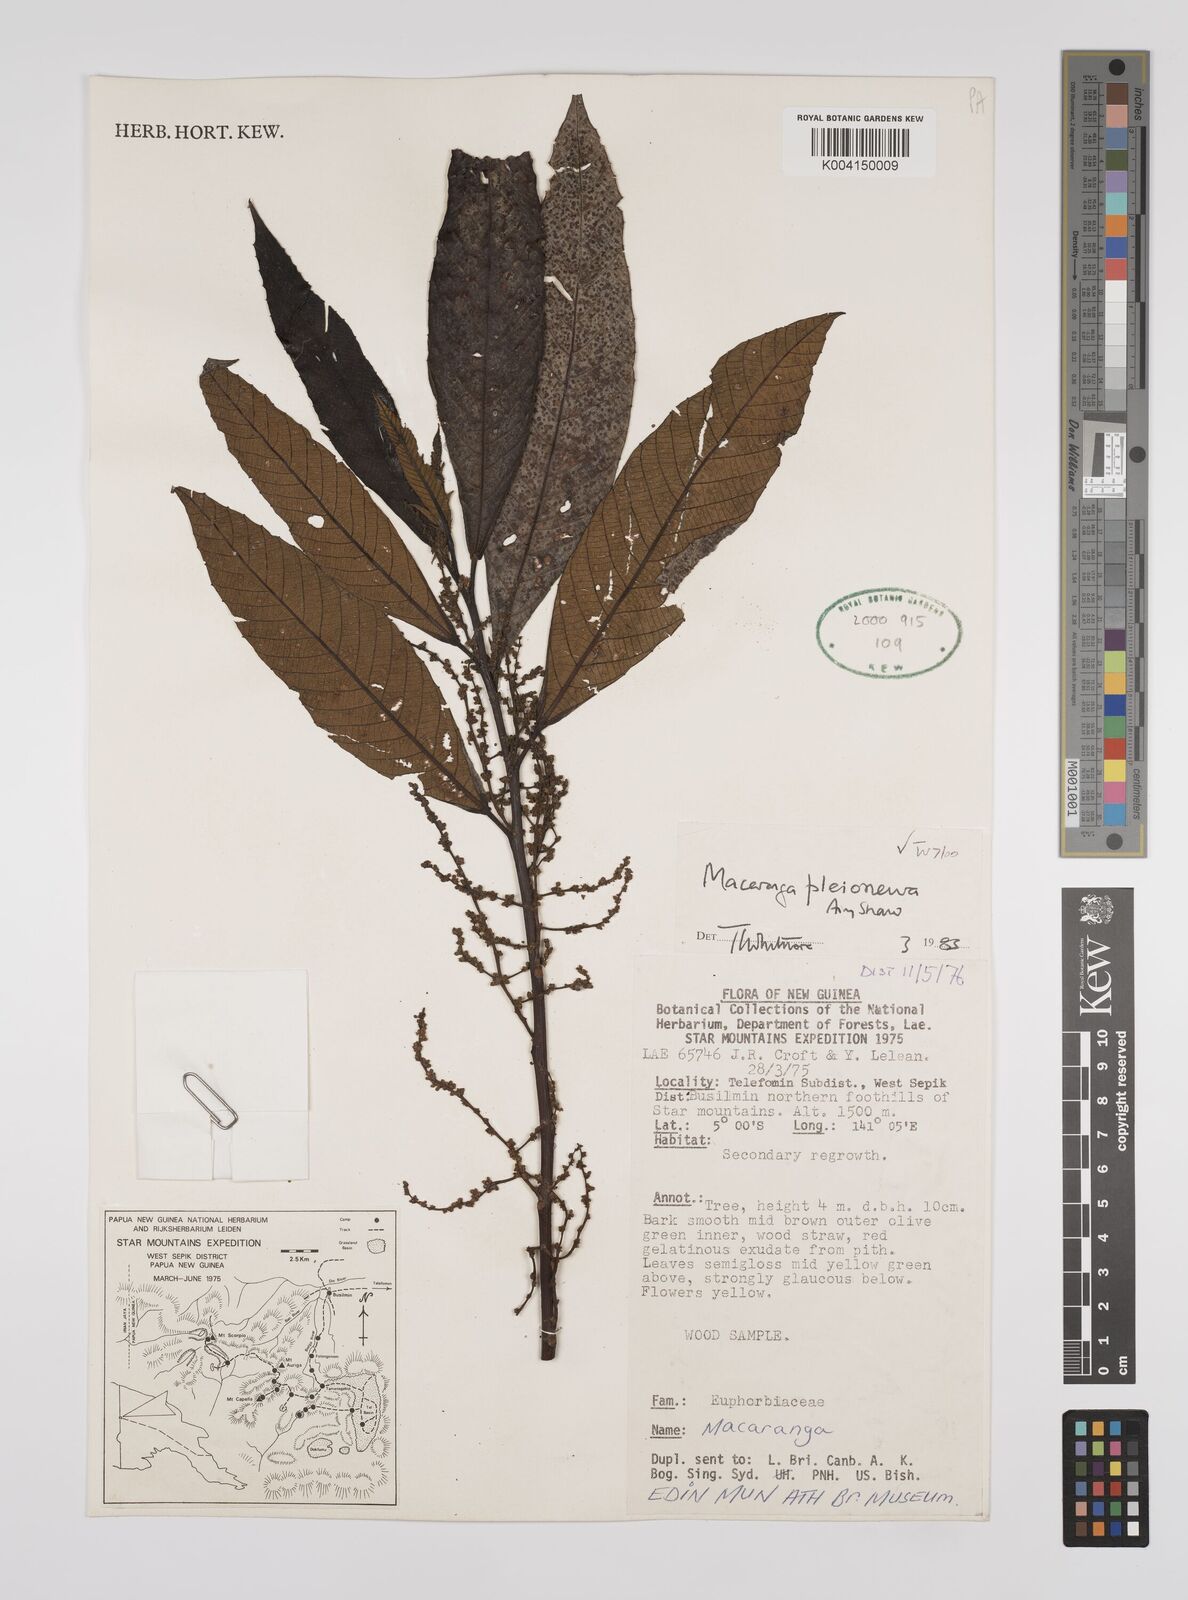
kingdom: Plantae
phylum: Tracheophyta
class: Magnoliopsida
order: Malpighiales
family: Euphorbiaceae
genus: Macaranga
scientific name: Macaranga pleioneura
